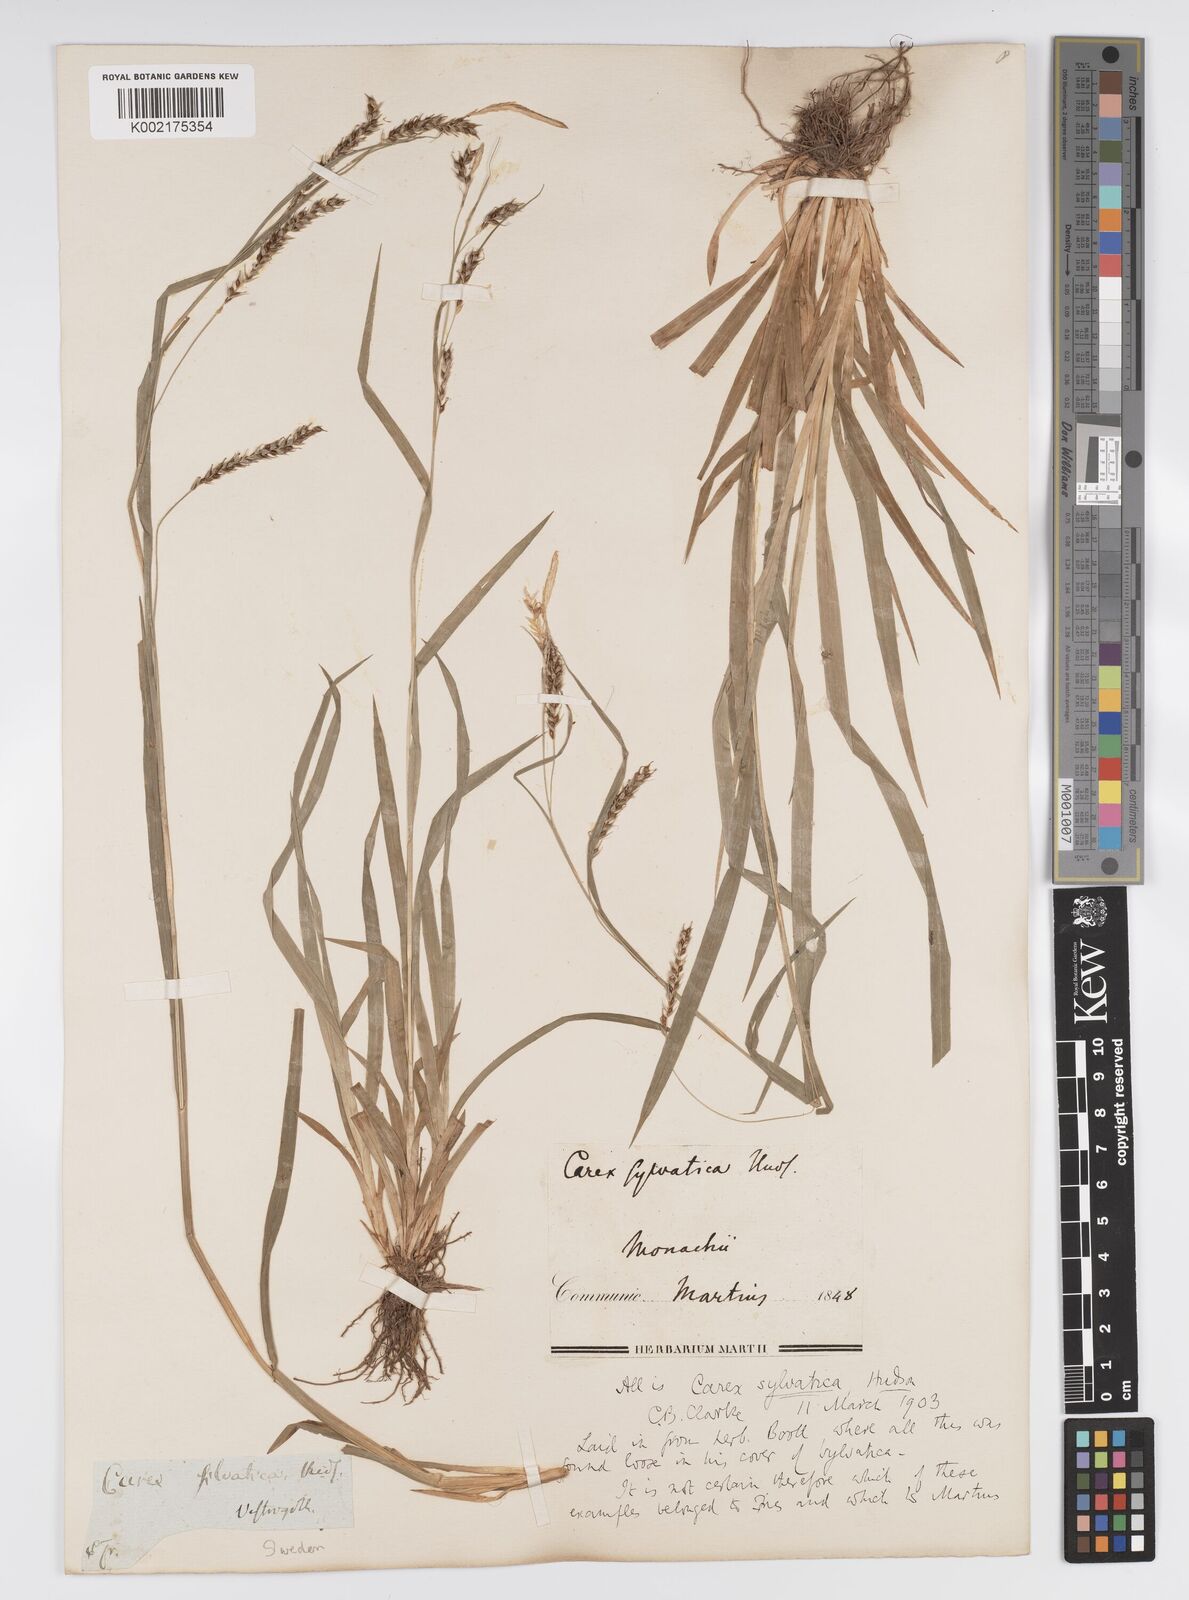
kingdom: Plantae
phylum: Tracheophyta
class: Liliopsida
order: Poales
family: Cyperaceae
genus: Carex
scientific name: Carex sylvatica
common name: Wood-sedge
